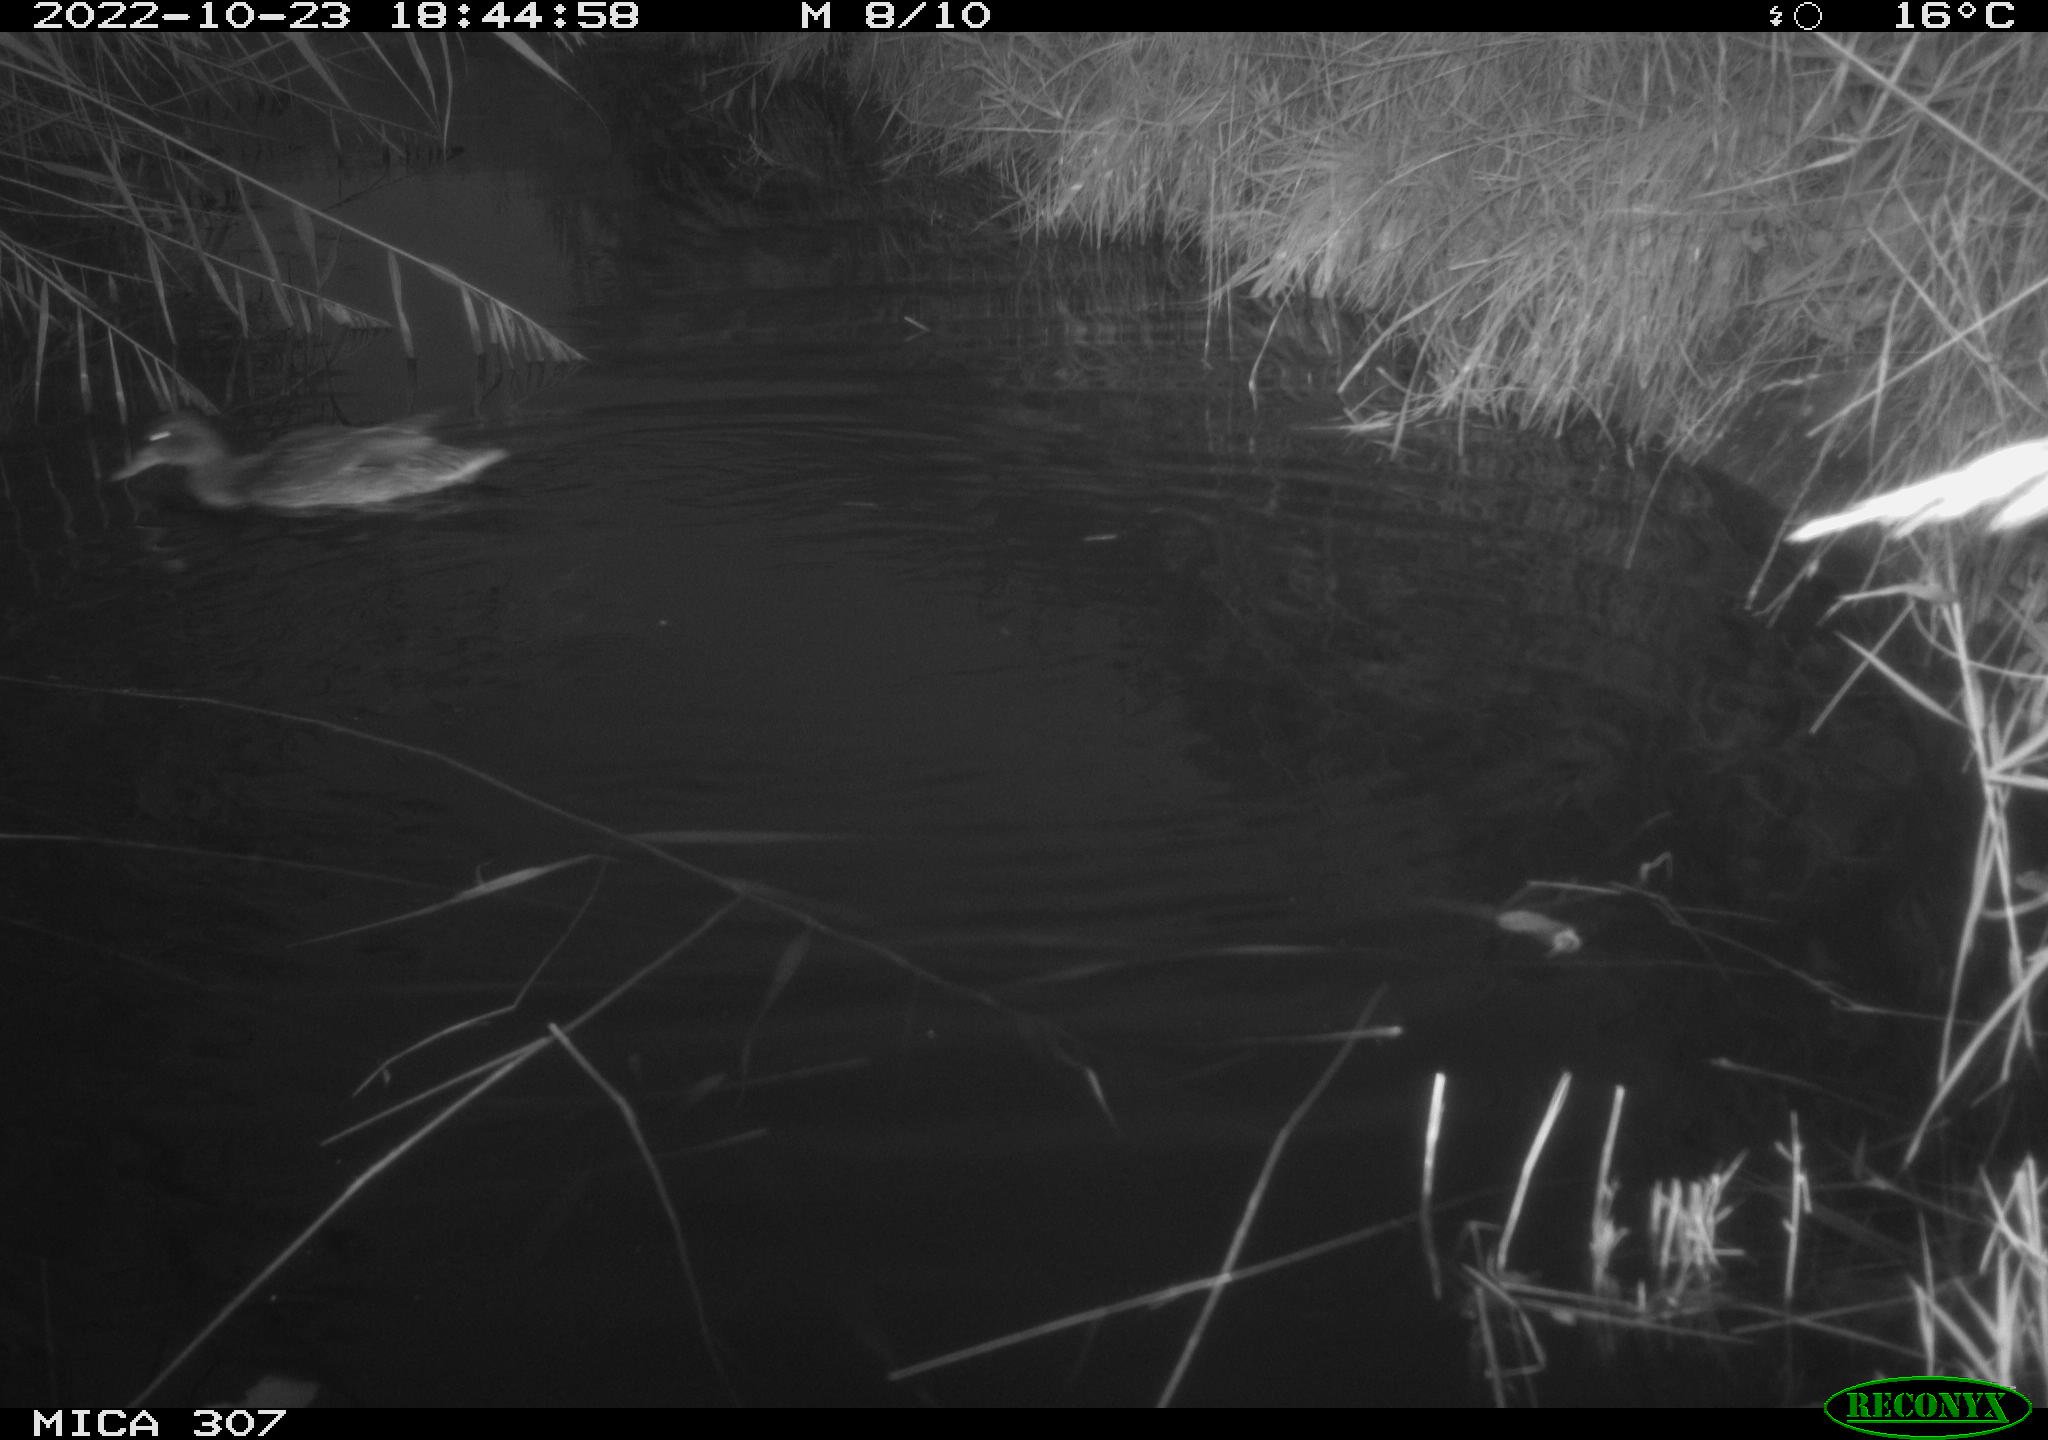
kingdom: Animalia
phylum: Chordata
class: Aves
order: Anseriformes
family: Anatidae
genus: Anas
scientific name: Anas
